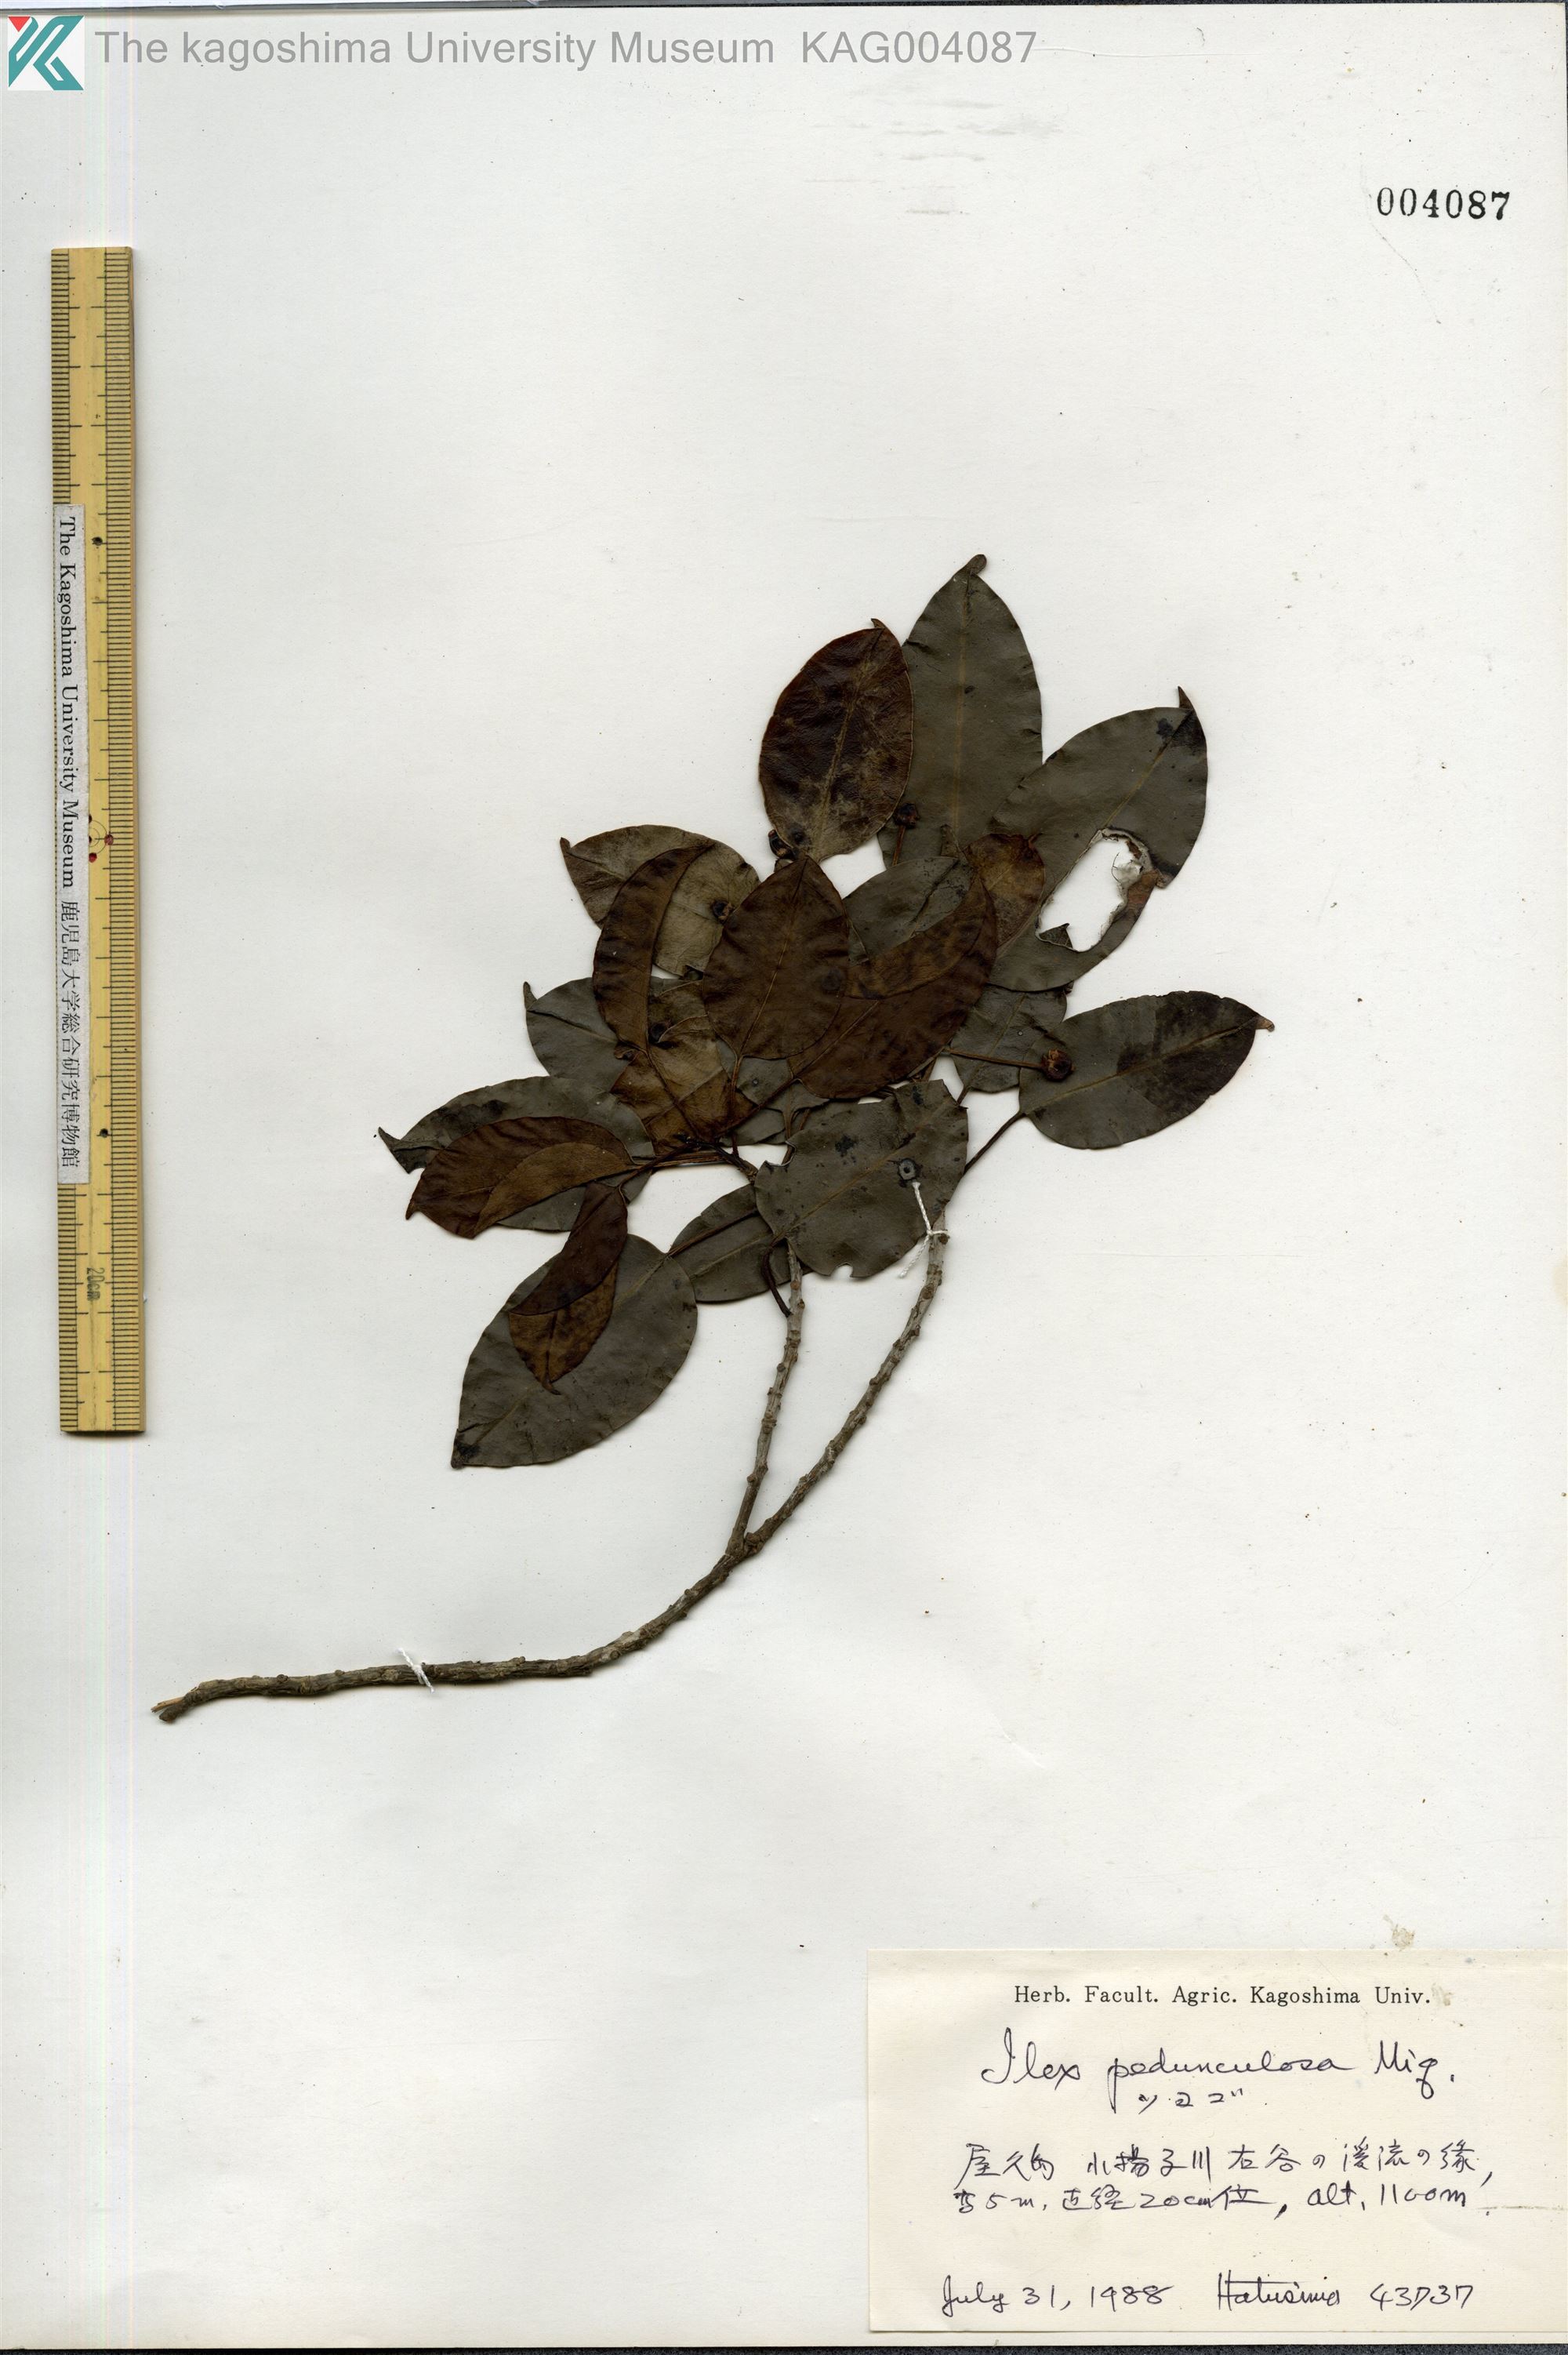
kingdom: Plantae
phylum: Tracheophyta
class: Magnoliopsida
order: Aquifoliales
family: Aquifoliaceae
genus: Ilex
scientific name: Ilex pedunculosa
